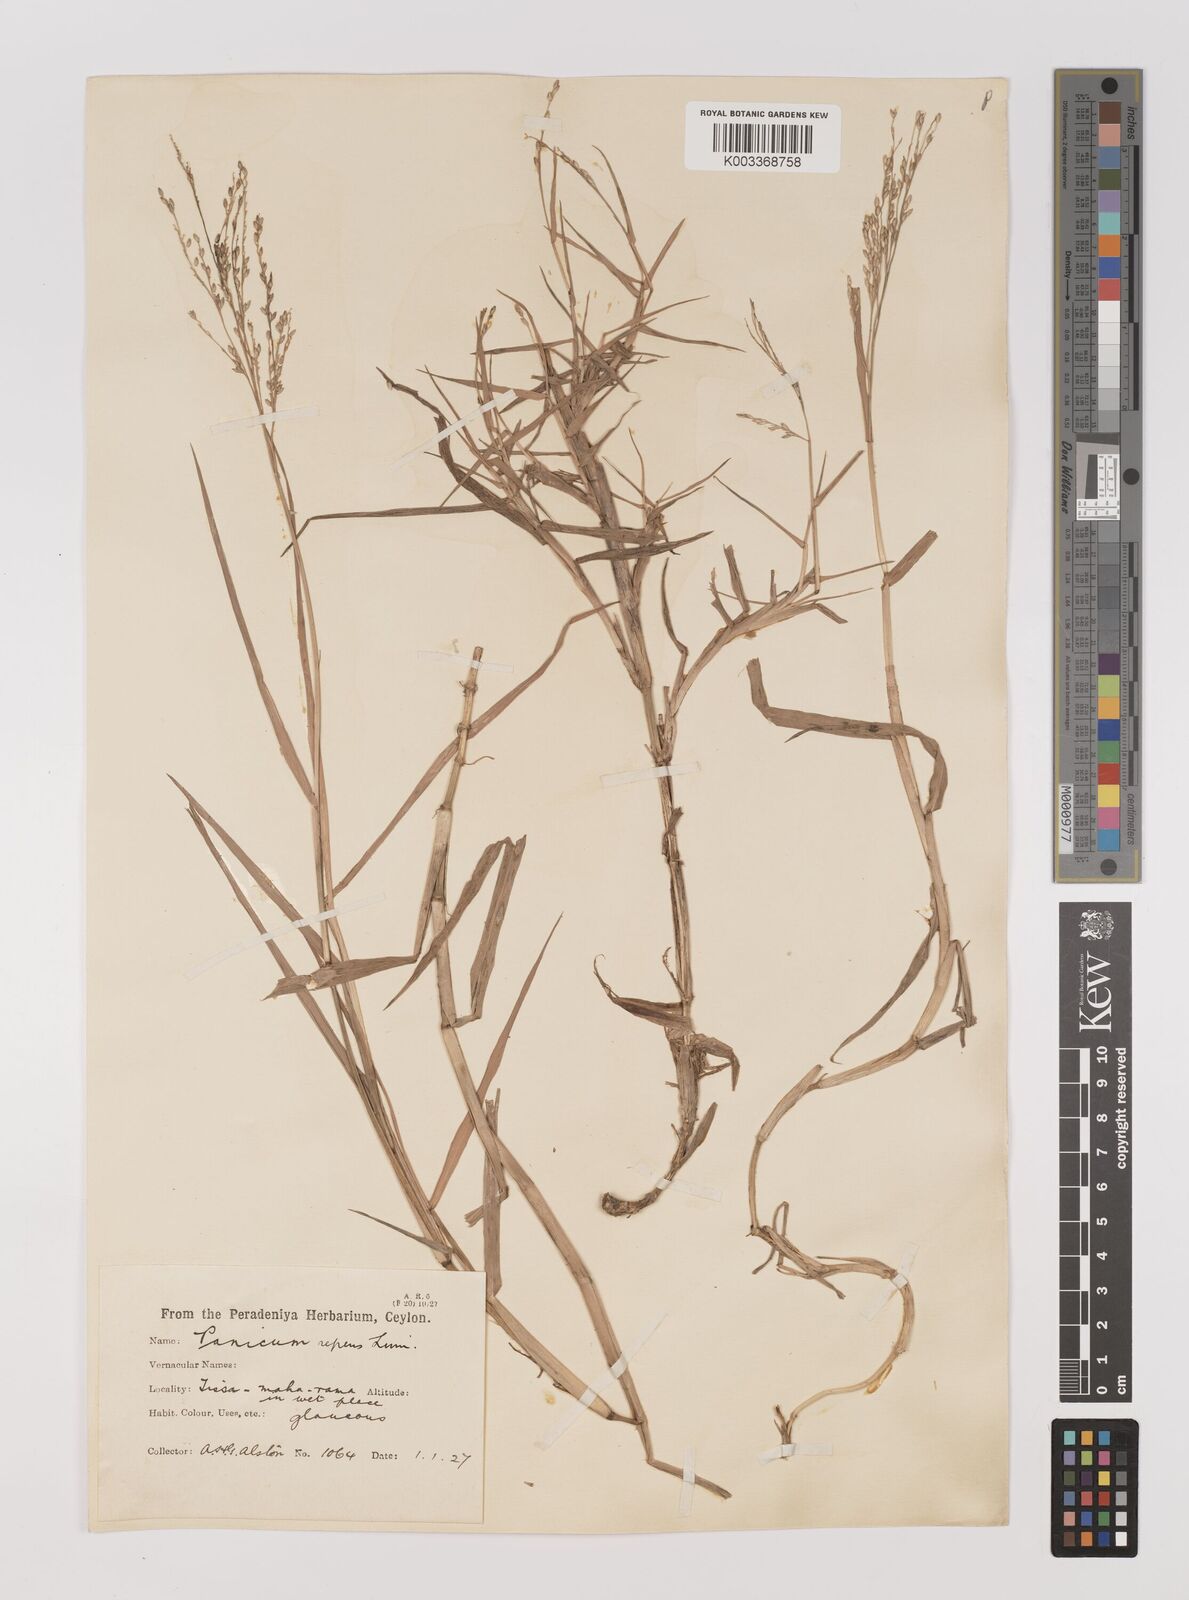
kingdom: Plantae
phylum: Tracheophyta
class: Liliopsida
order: Poales
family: Poaceae
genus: Panicum
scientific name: Panicum repens
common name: Torpedo grass
